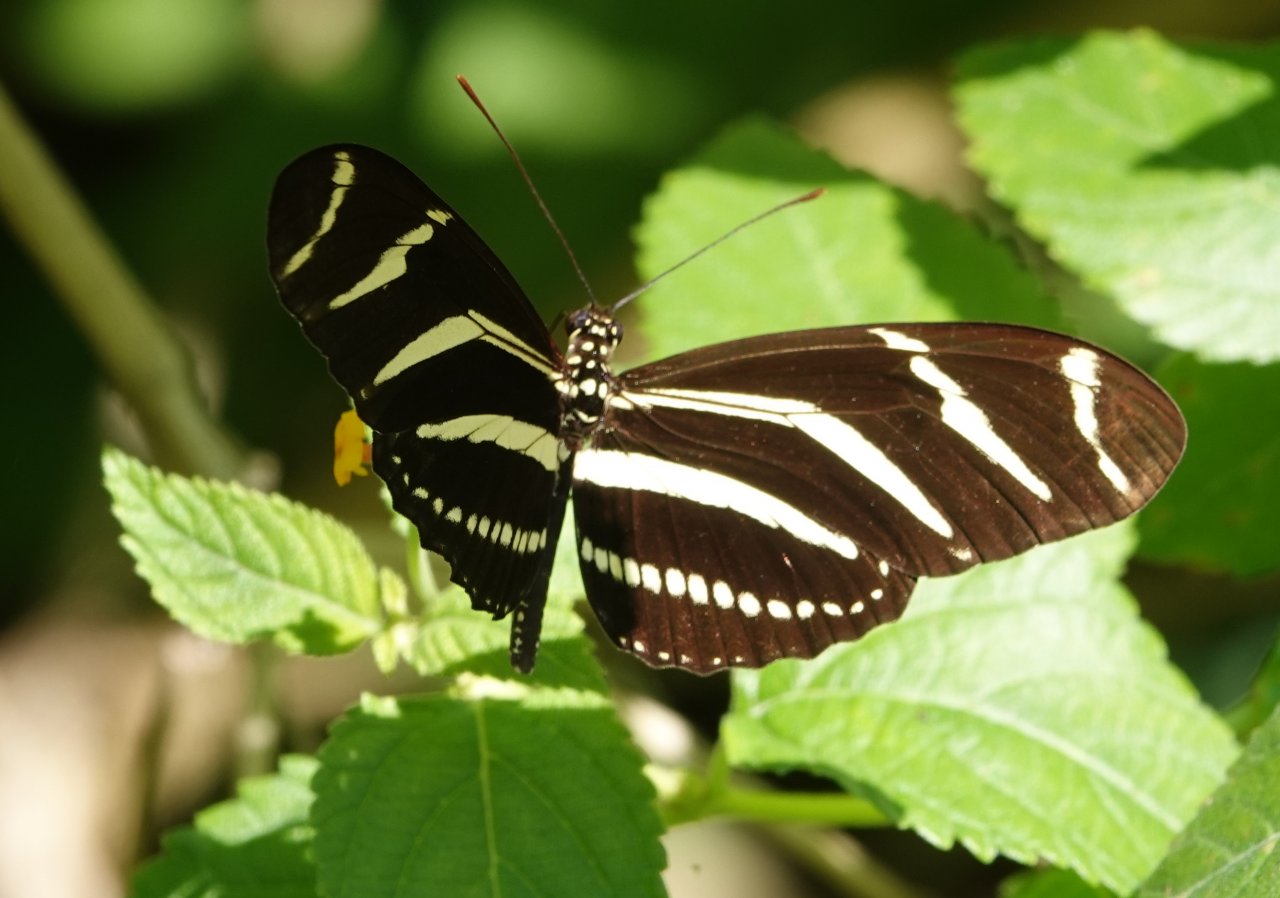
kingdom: Animalia
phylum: Arthropoda
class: Insecta
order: Lepidoptera
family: Nymphalidae
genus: Heliconius
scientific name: Heliconius charithonia
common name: Zebra Longwing
